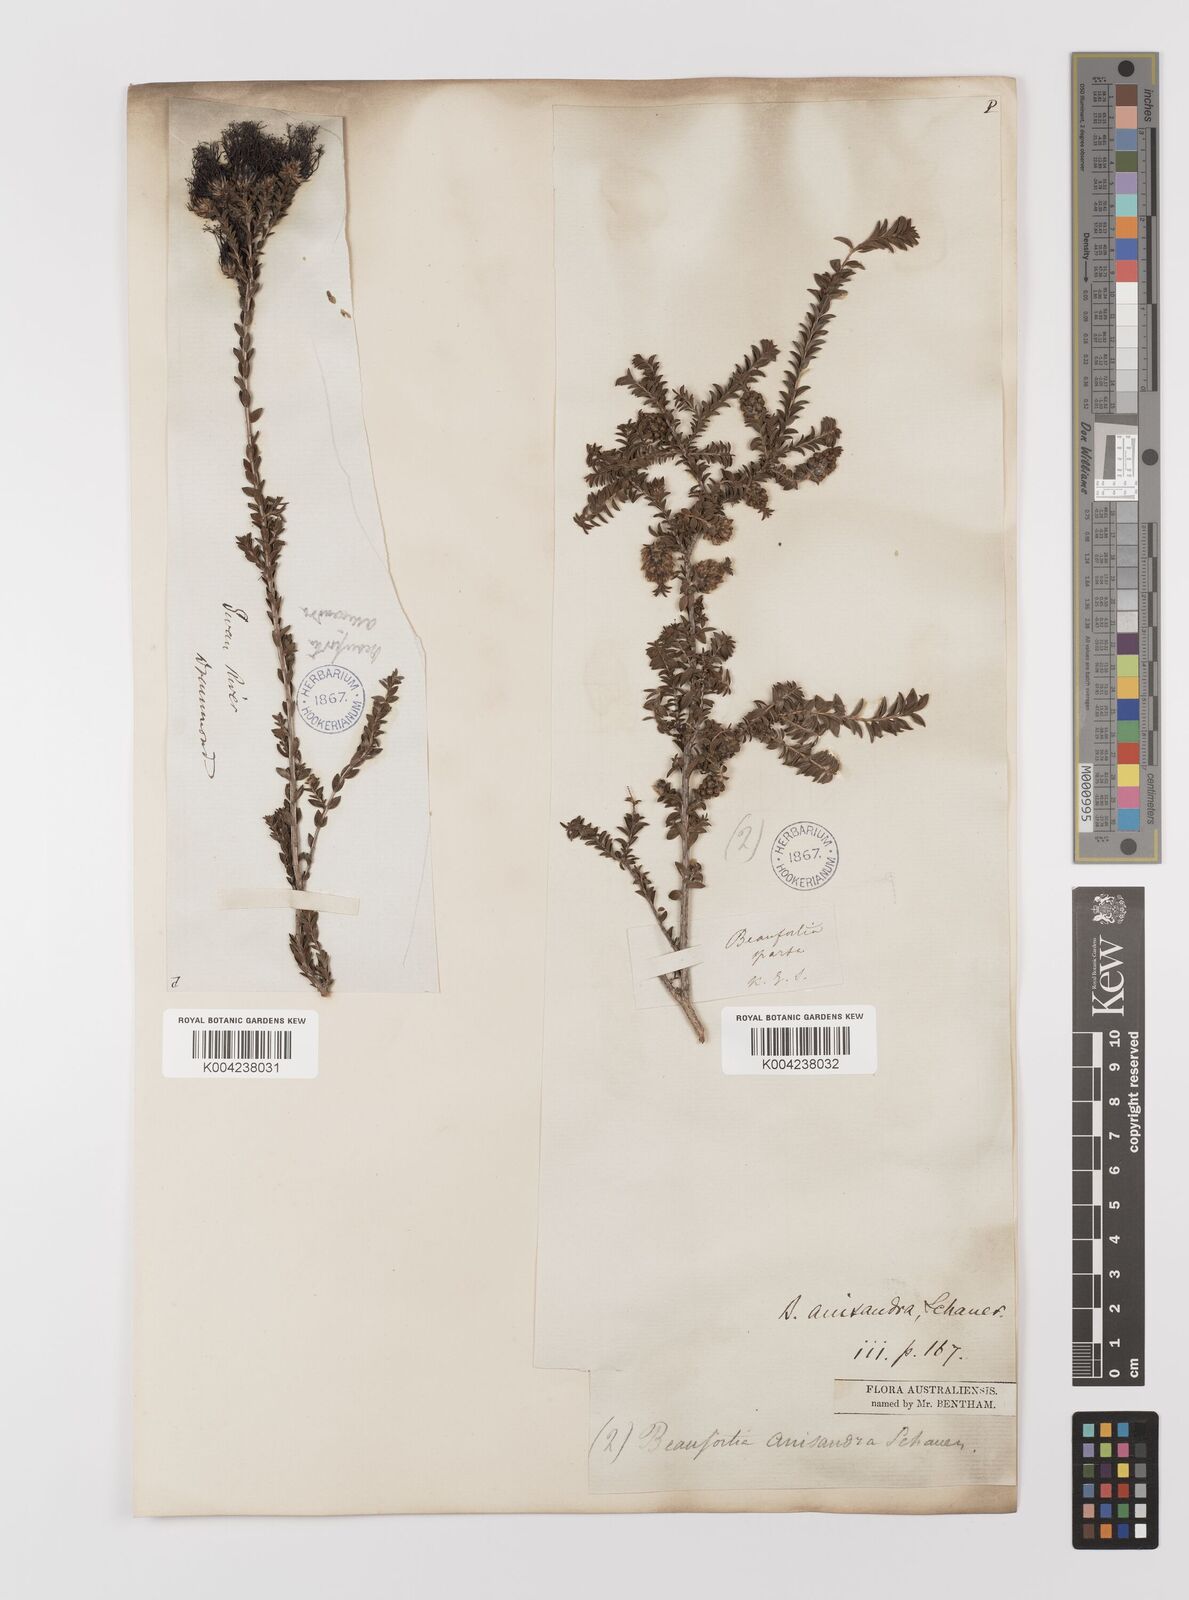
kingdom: Plantae
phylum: Tracheophyta
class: Magnoliopsida
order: Myrtales
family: Myrtaceae
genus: Melaleuca
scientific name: Melaleuca anisandra
